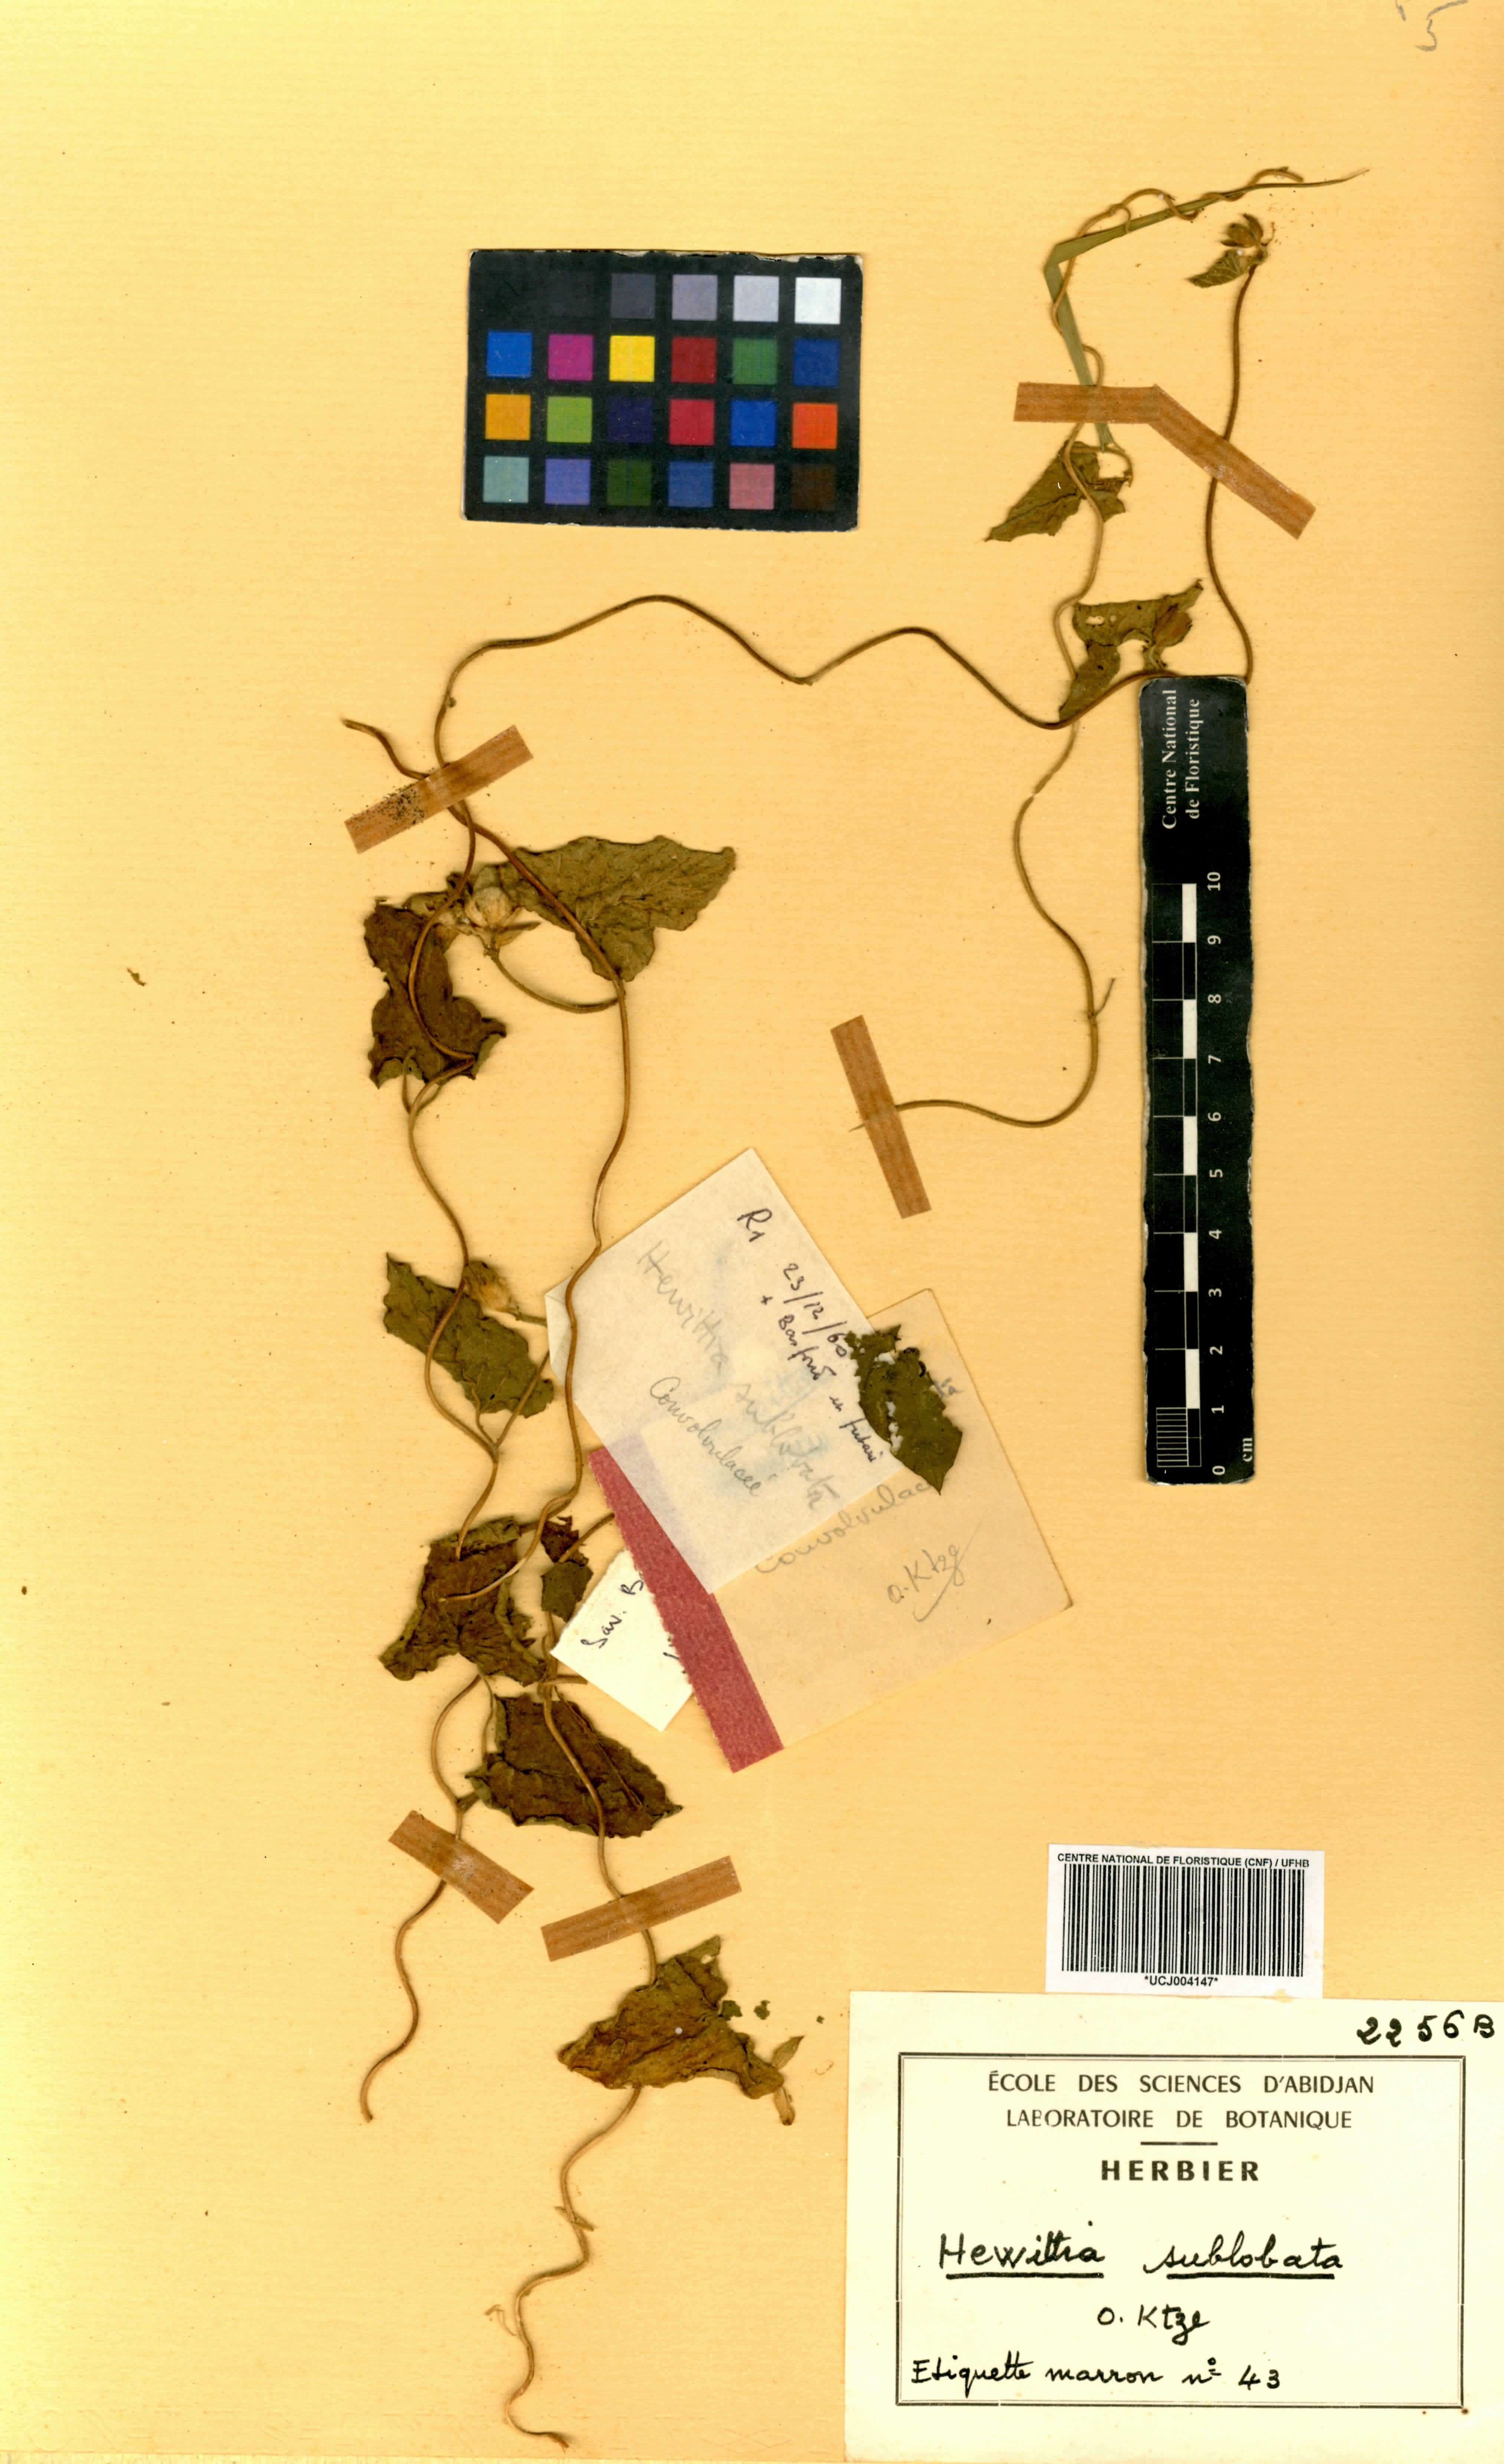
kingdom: Plantae
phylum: Tracheophyta
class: Magnoliopsida
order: Solanales
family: Convolvulaceae
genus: Hewittia
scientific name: Hewittia sublobata
